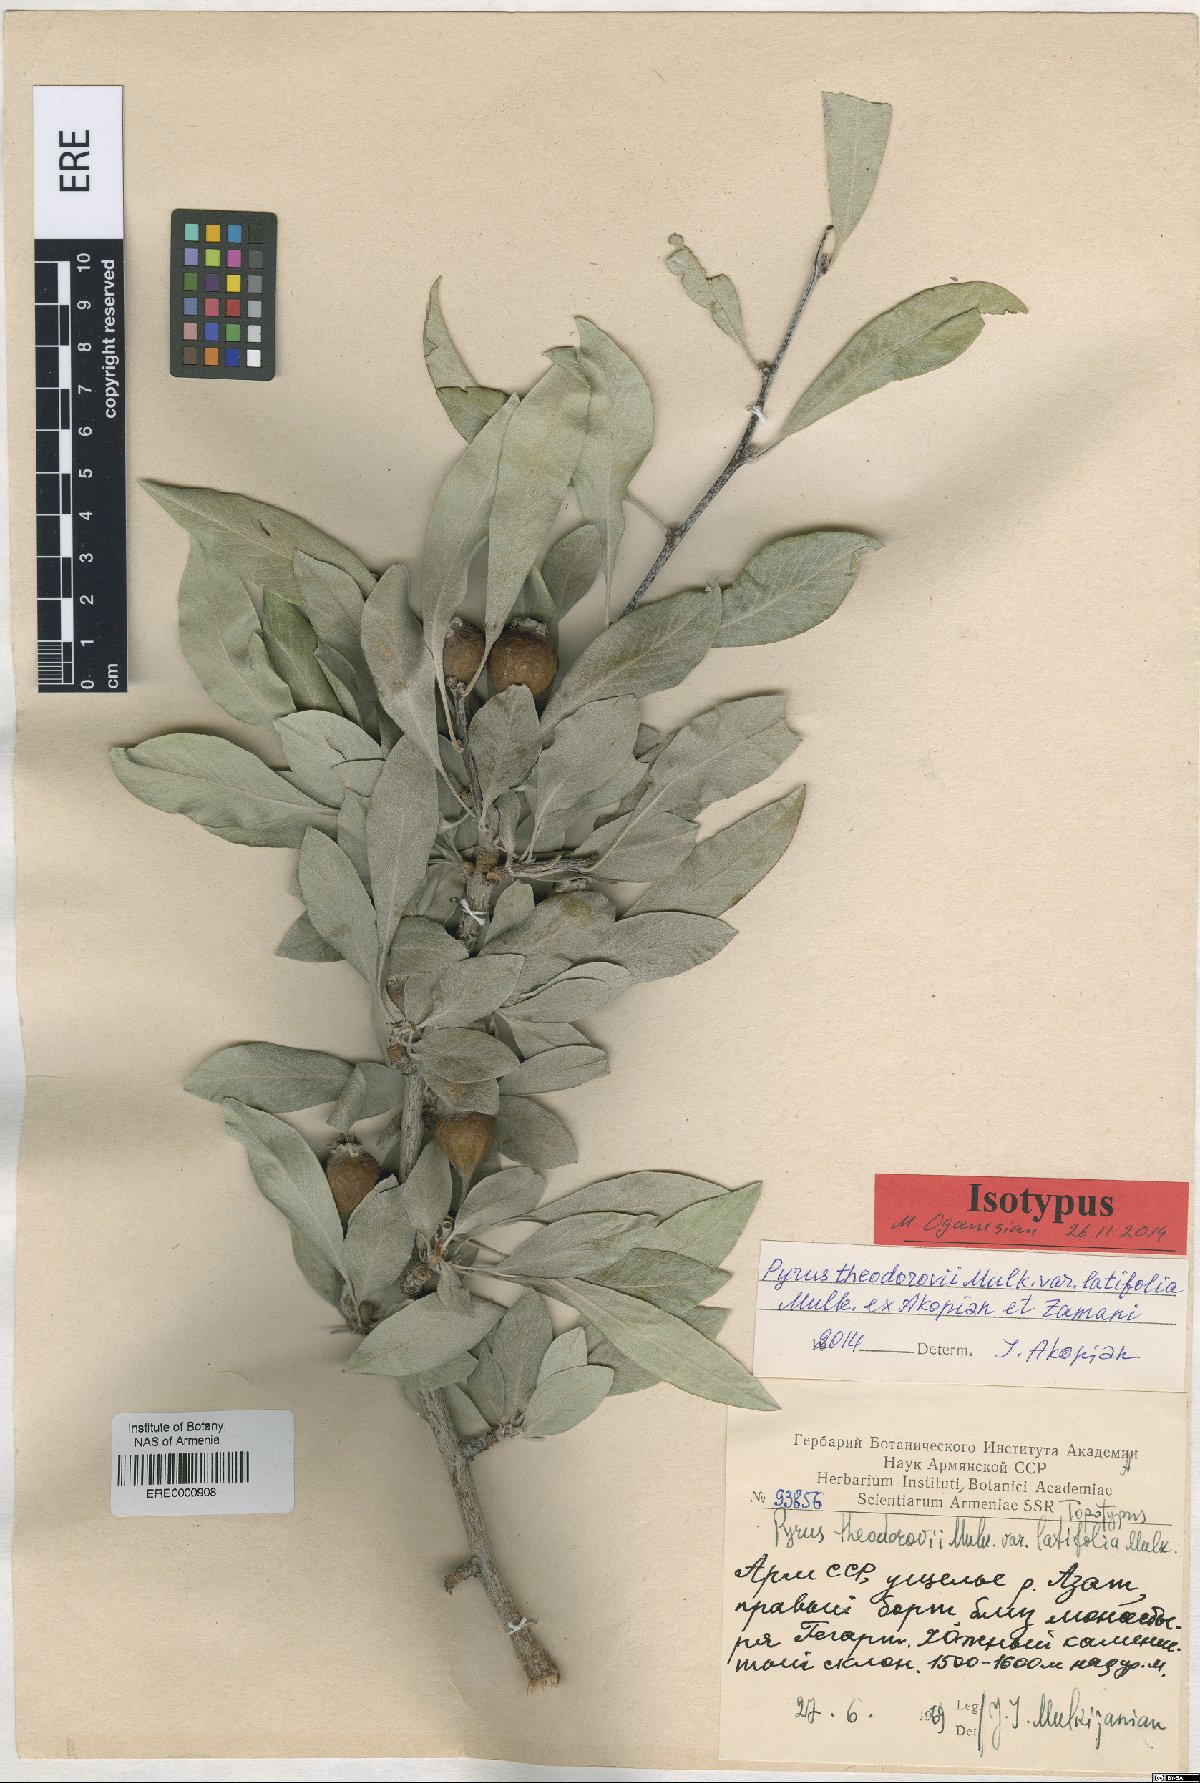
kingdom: Plantae
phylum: Tracheophyta
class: Magnoliopsida
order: Rosales
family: Rosaceae
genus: Pyrus
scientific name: Pyrus theodorovii
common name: Teodorov's pear
